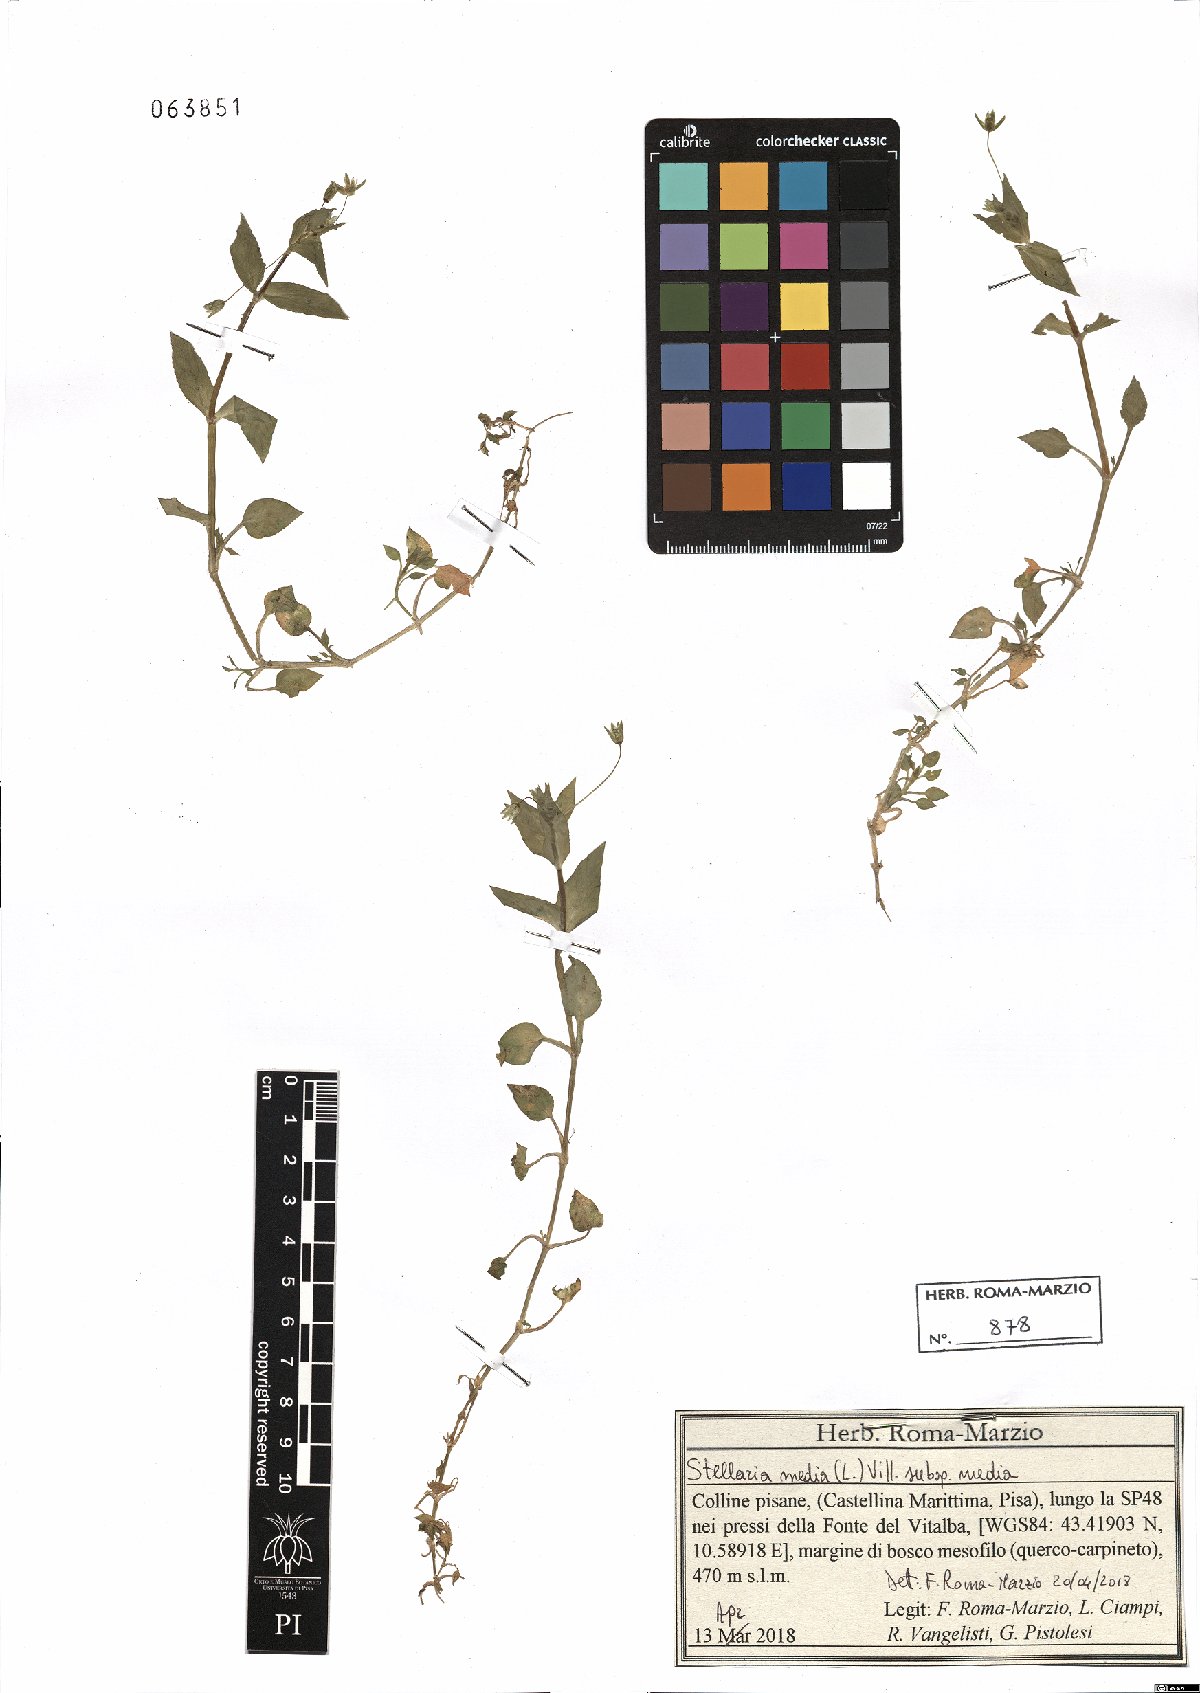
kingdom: Plantae
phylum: Tracheophyta
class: Magnoliopsida
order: Caryophyllales
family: Caryophyllaceae
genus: Stellaria
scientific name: Stellaria media
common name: Common chickweed
